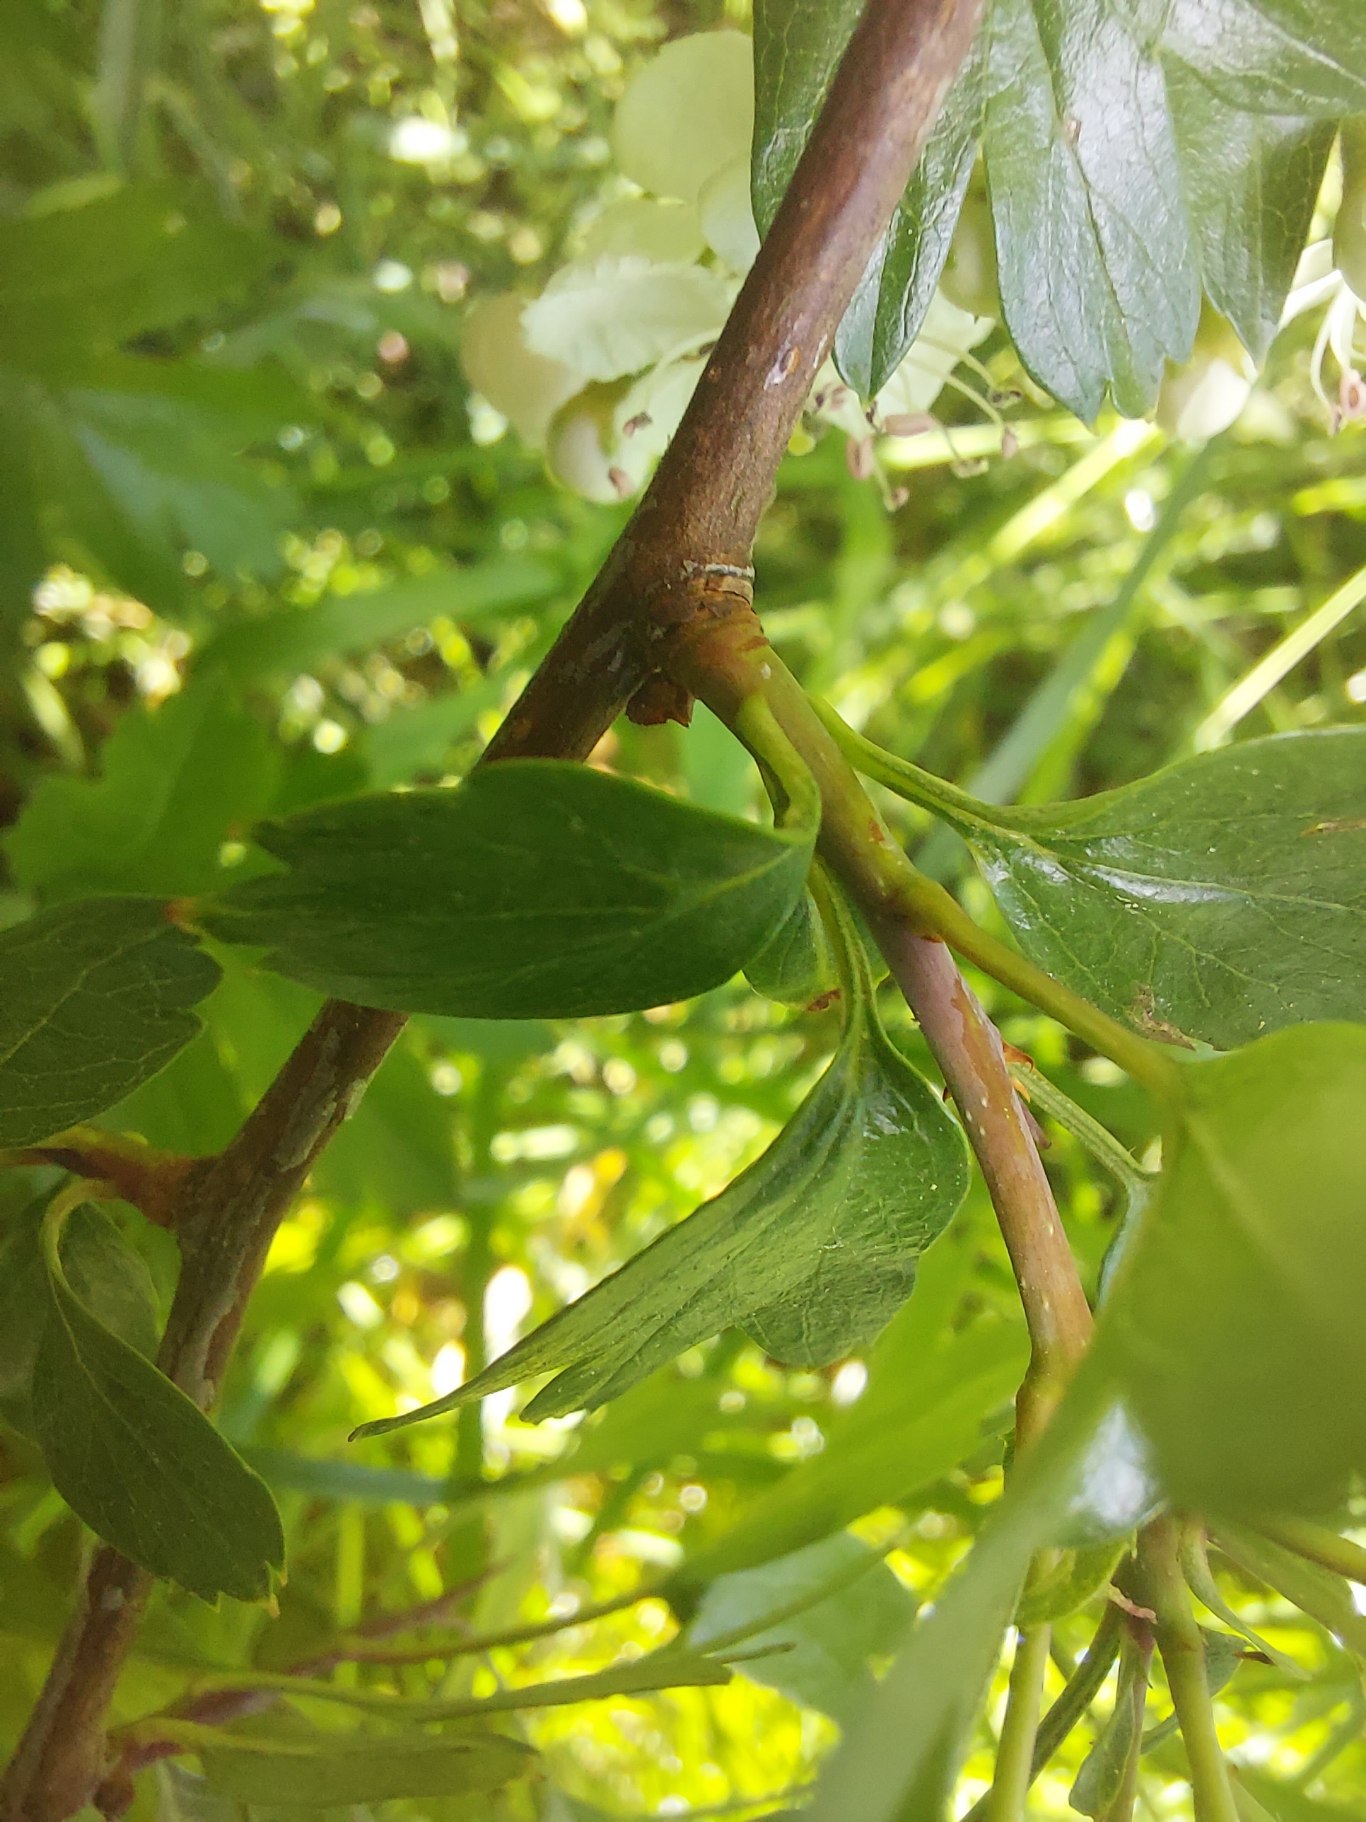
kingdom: Plantae
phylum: Tracheophyta
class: Magnoliopsida
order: Rosales
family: Rosaceae
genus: Crataegus
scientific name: Crataegus monogyna
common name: Engriflet hvidtjørn
